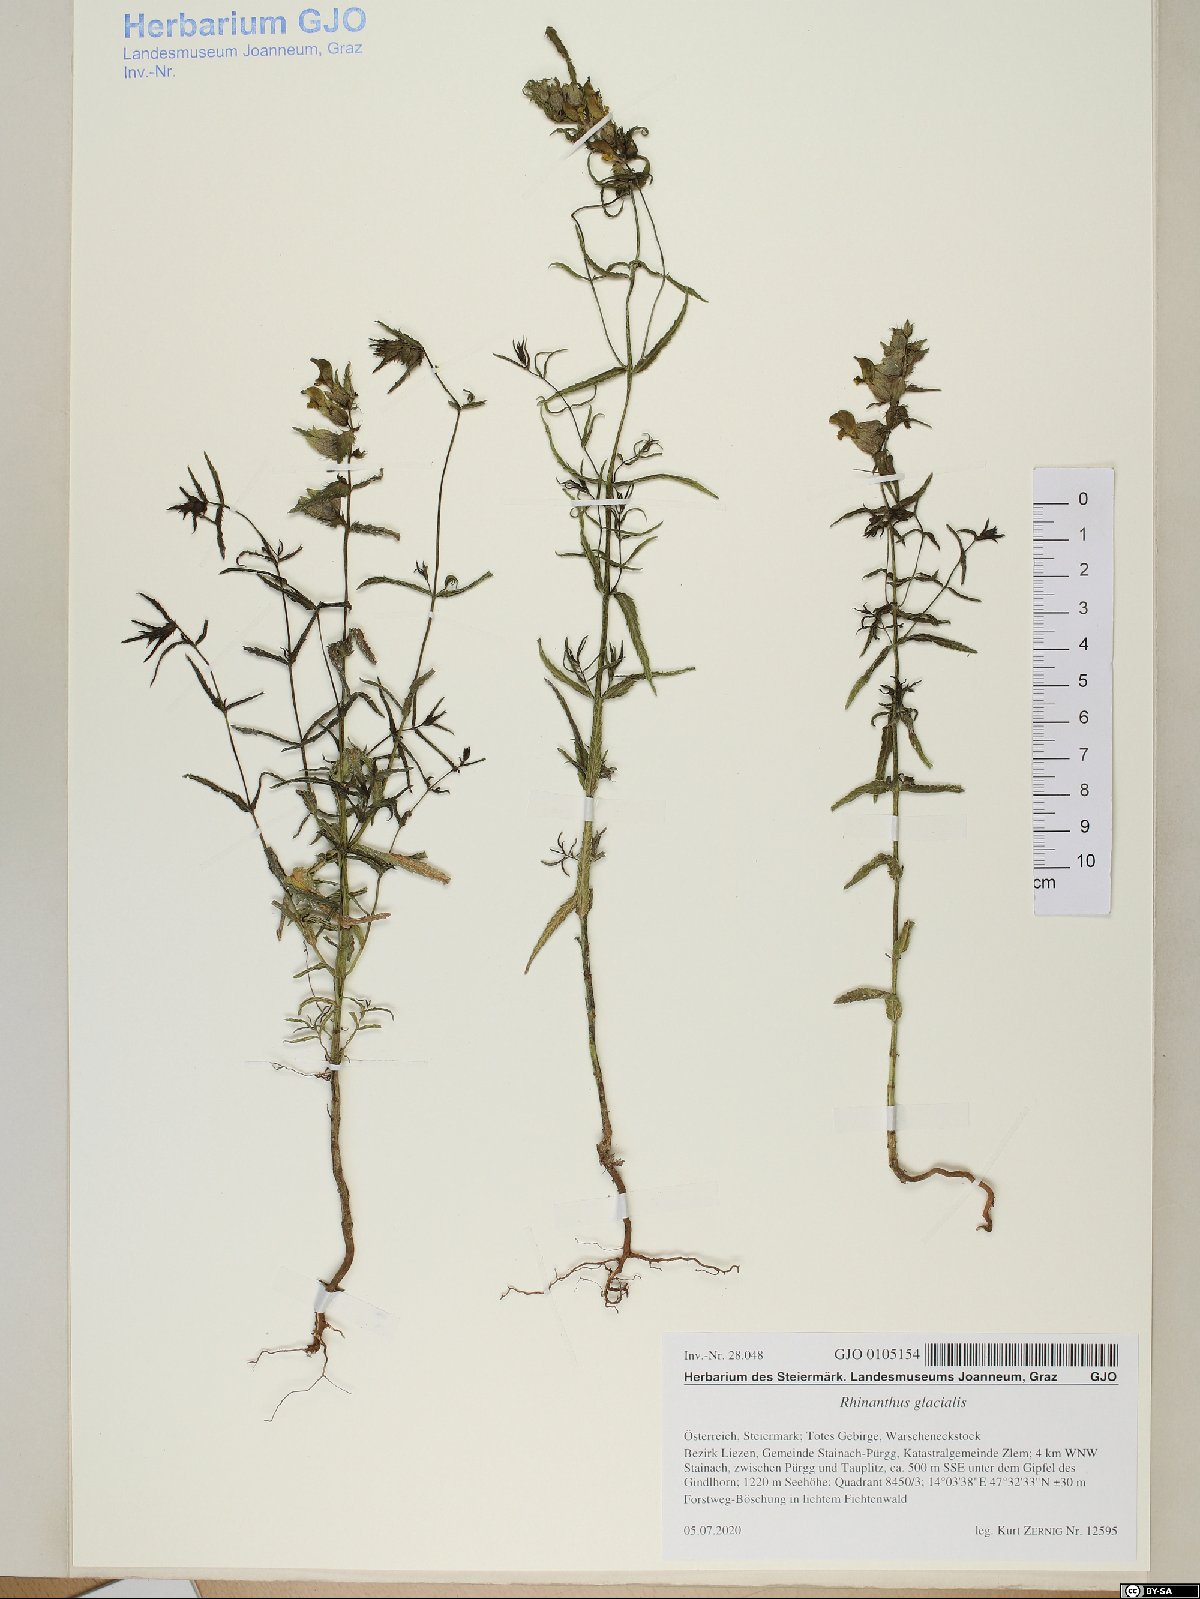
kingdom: Plantae
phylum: Tracheophyta
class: Magnoliopsida
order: Lamiales
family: Orobanchaceae
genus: Rhinanthus
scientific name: Rhinanthus glacialis
